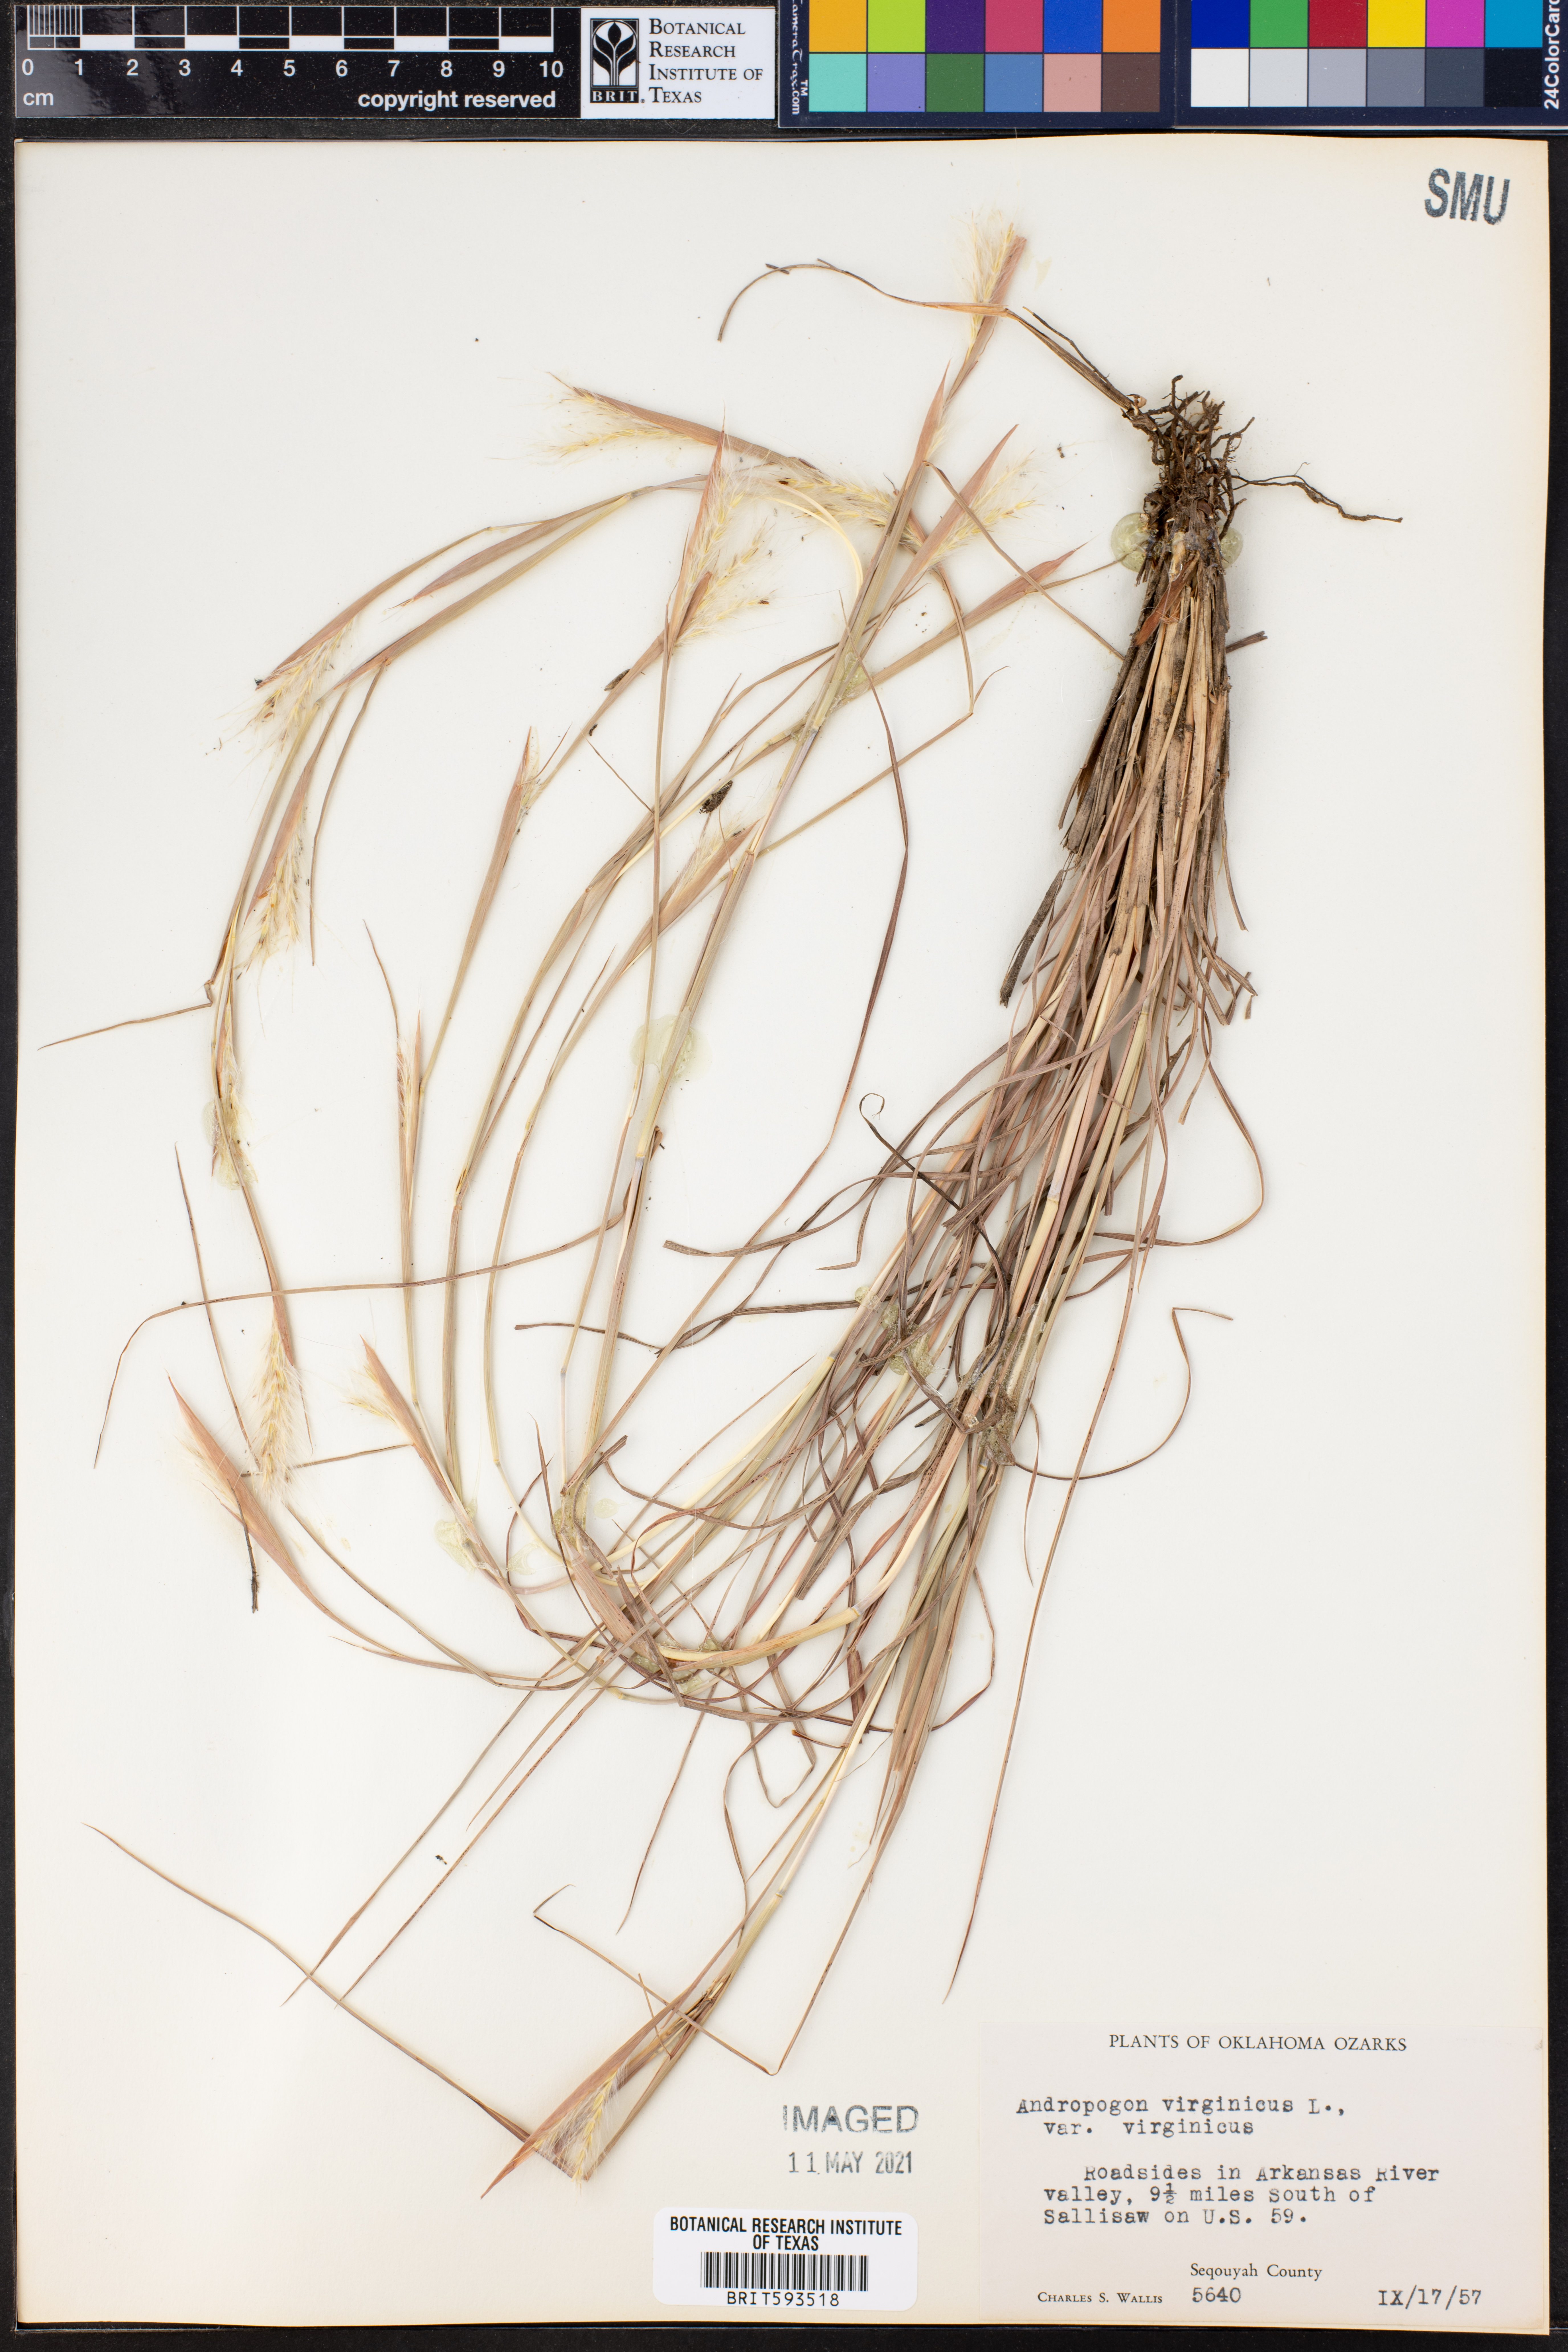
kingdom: Plantae
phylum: Tracheophyta
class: Liliopsida
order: Poales
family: Poaceae
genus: Andropogon
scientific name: Andropogon virginicus
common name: Broomsedge bluestem
